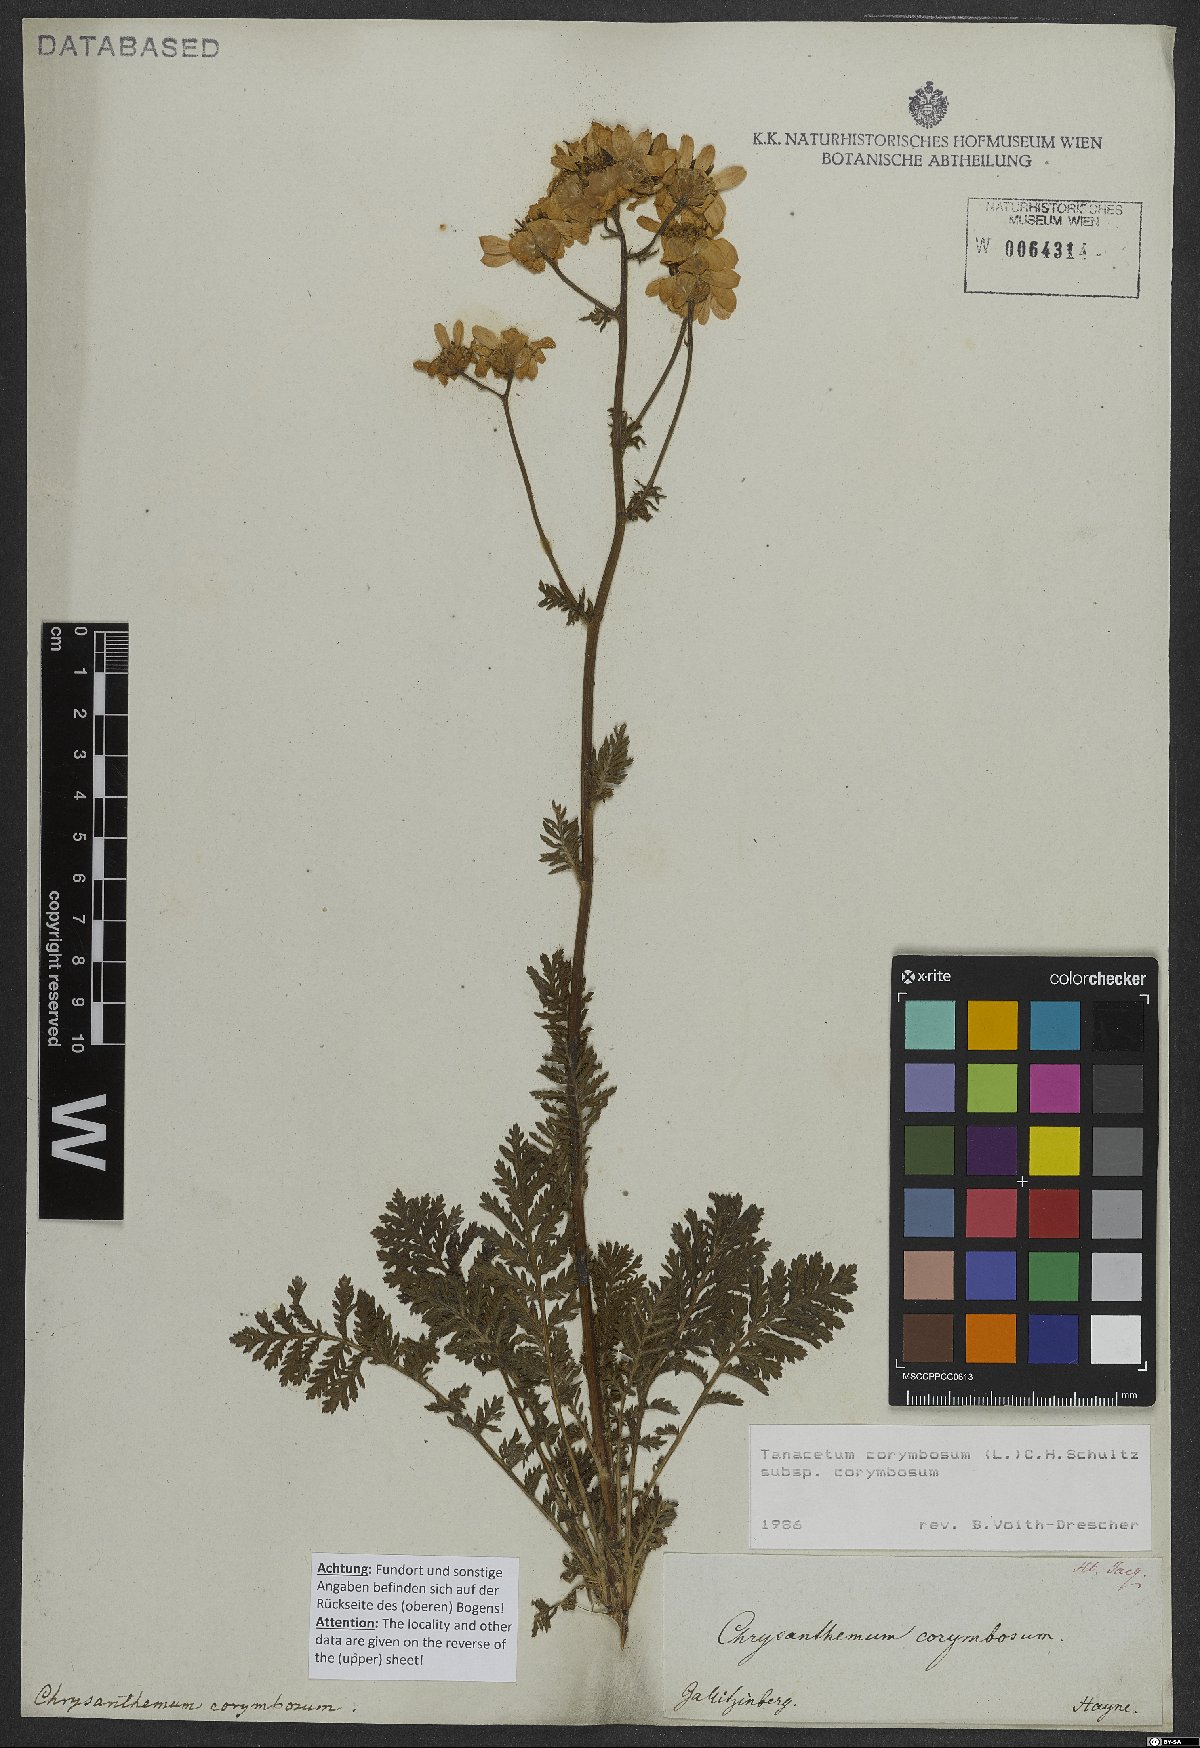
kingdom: Plantae
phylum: Tracheophyta
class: Magnoliopsida
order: Asterales
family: Asteraceae
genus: Tanacetum
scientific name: Tanacetum corymbosum
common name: Scentless feverfew
